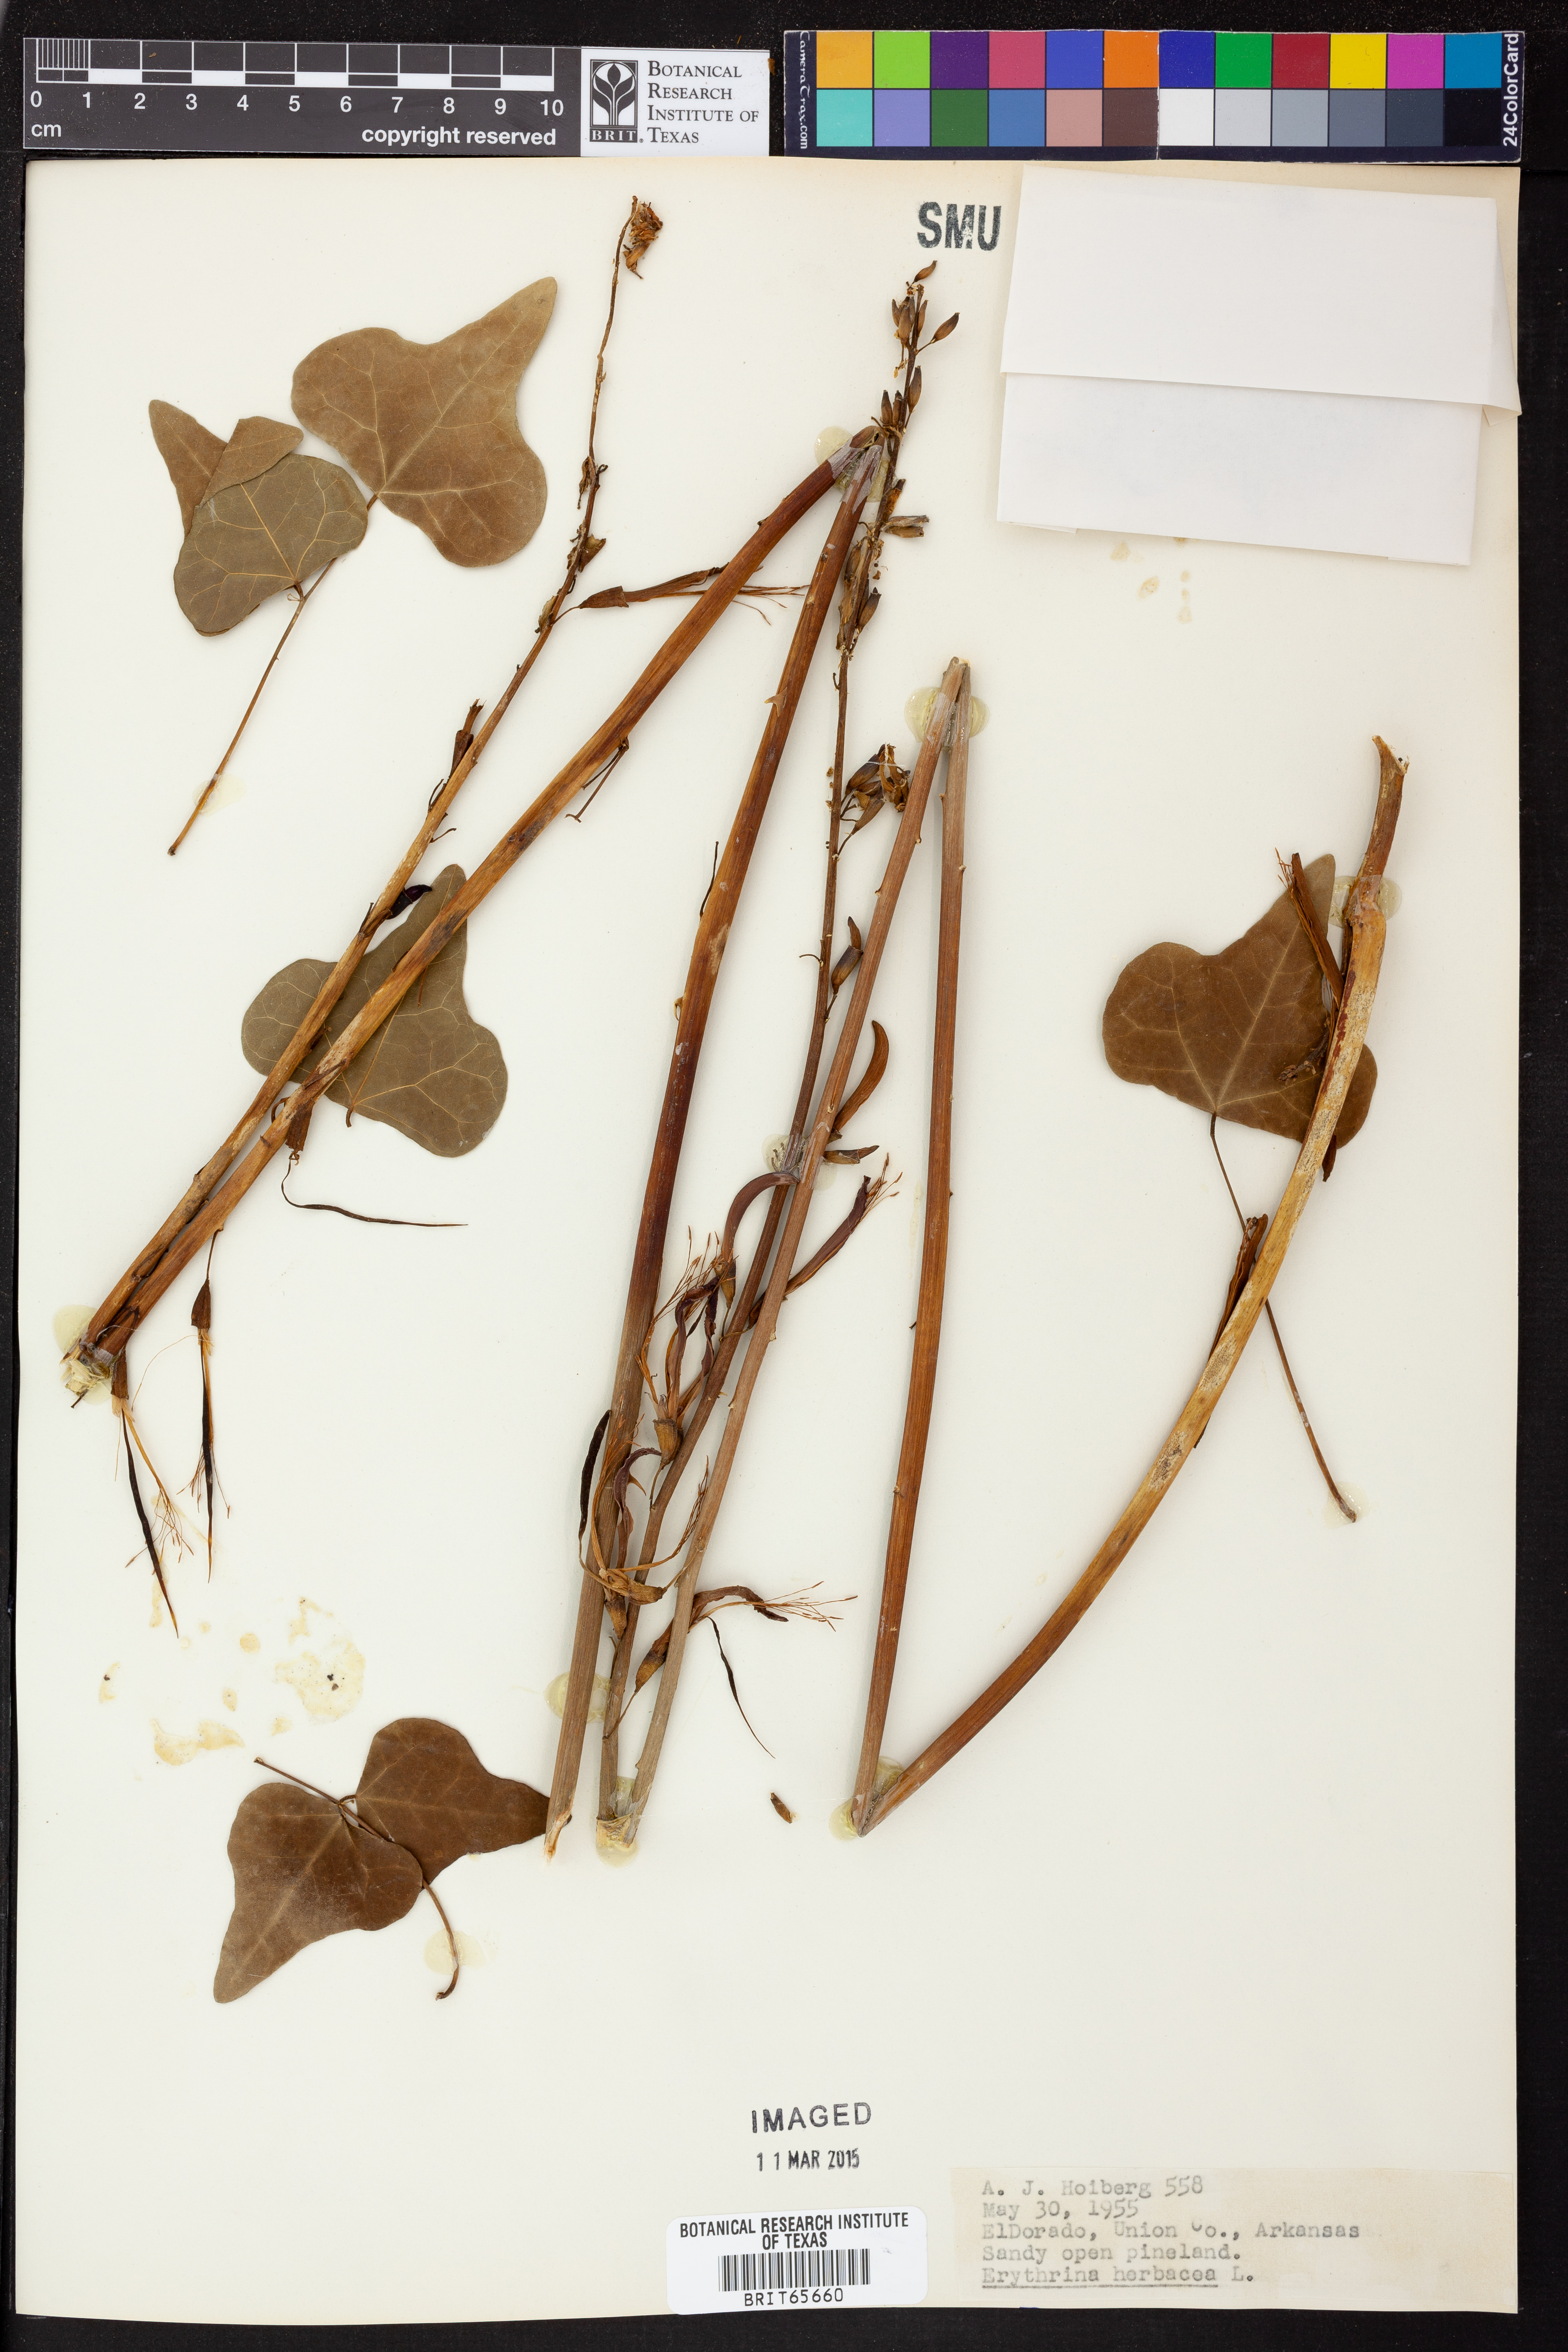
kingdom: Plantae
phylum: Tracheophyta
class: Magnoliopsida
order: Fabales
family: Fabaceae
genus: Erythrina
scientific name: Erythrina herbacea
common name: Coral-bean
